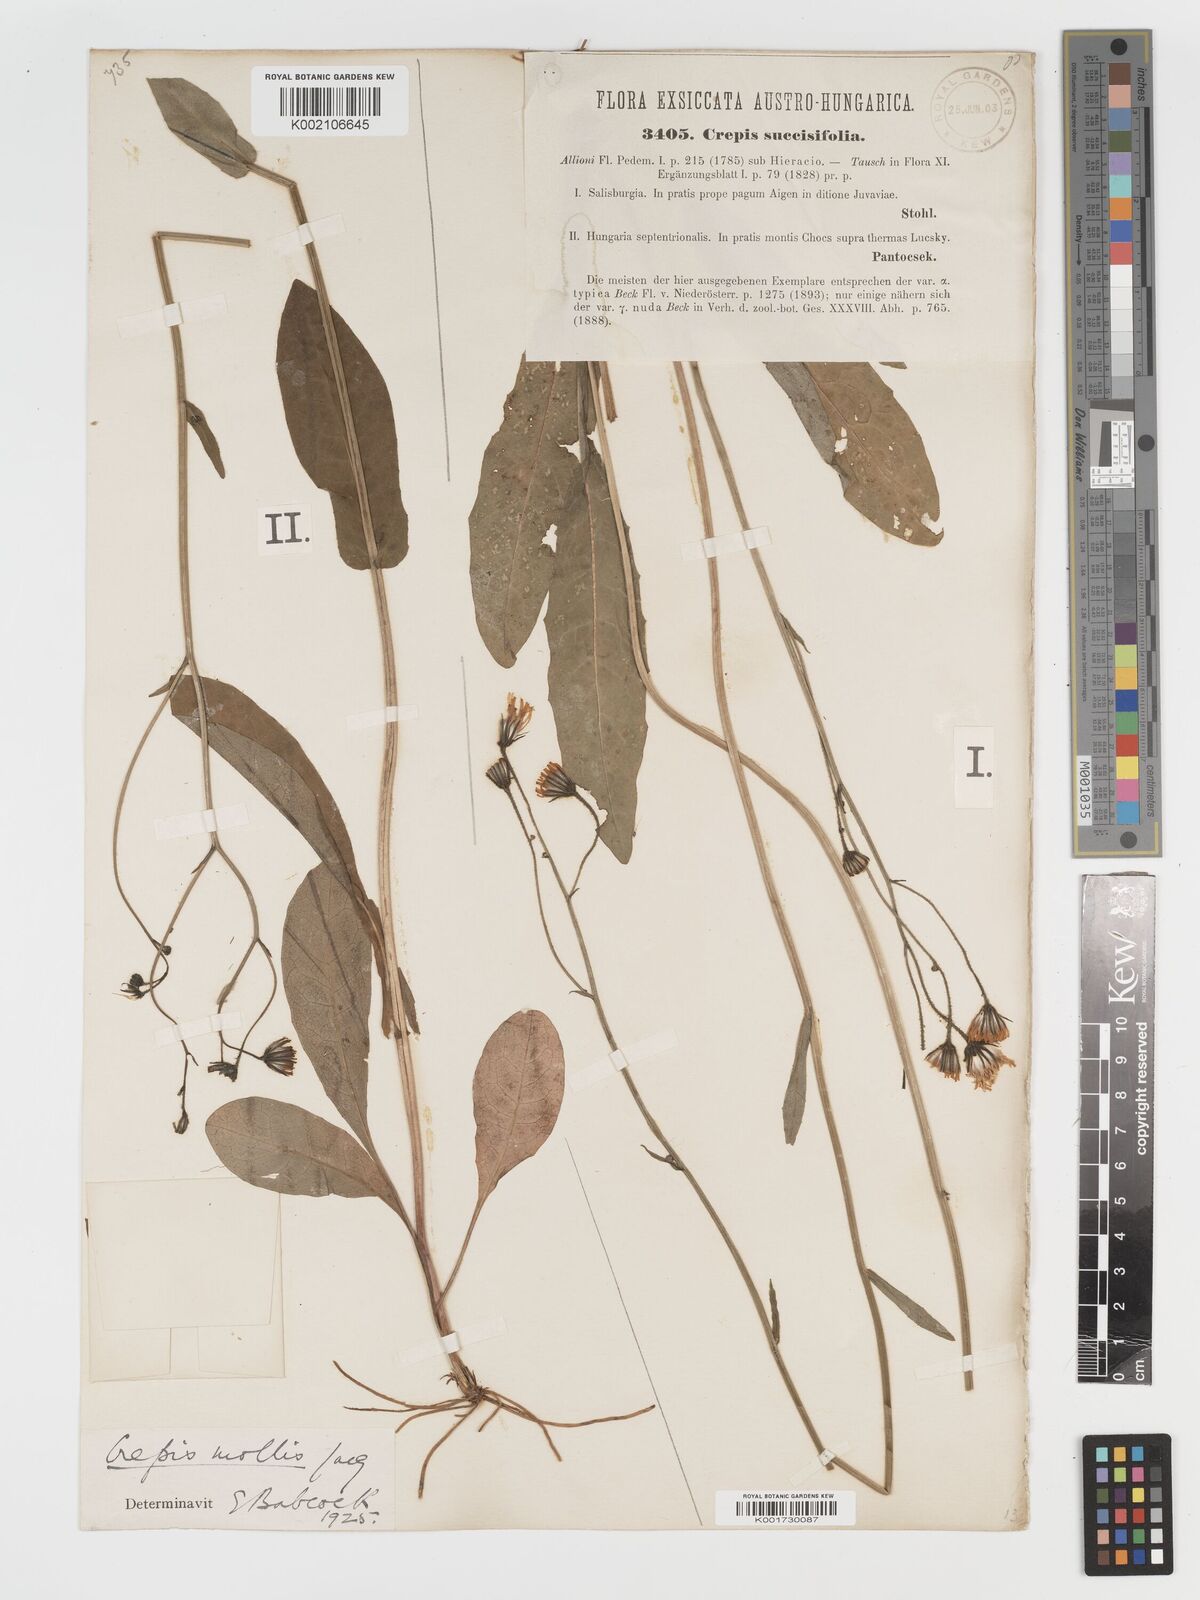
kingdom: Plantae
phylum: Tracheophyta
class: Magnoliopsida
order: Asterales
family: Asteraceae
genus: Crepis
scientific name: Crepis mollis
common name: Northern hawk's-beard
